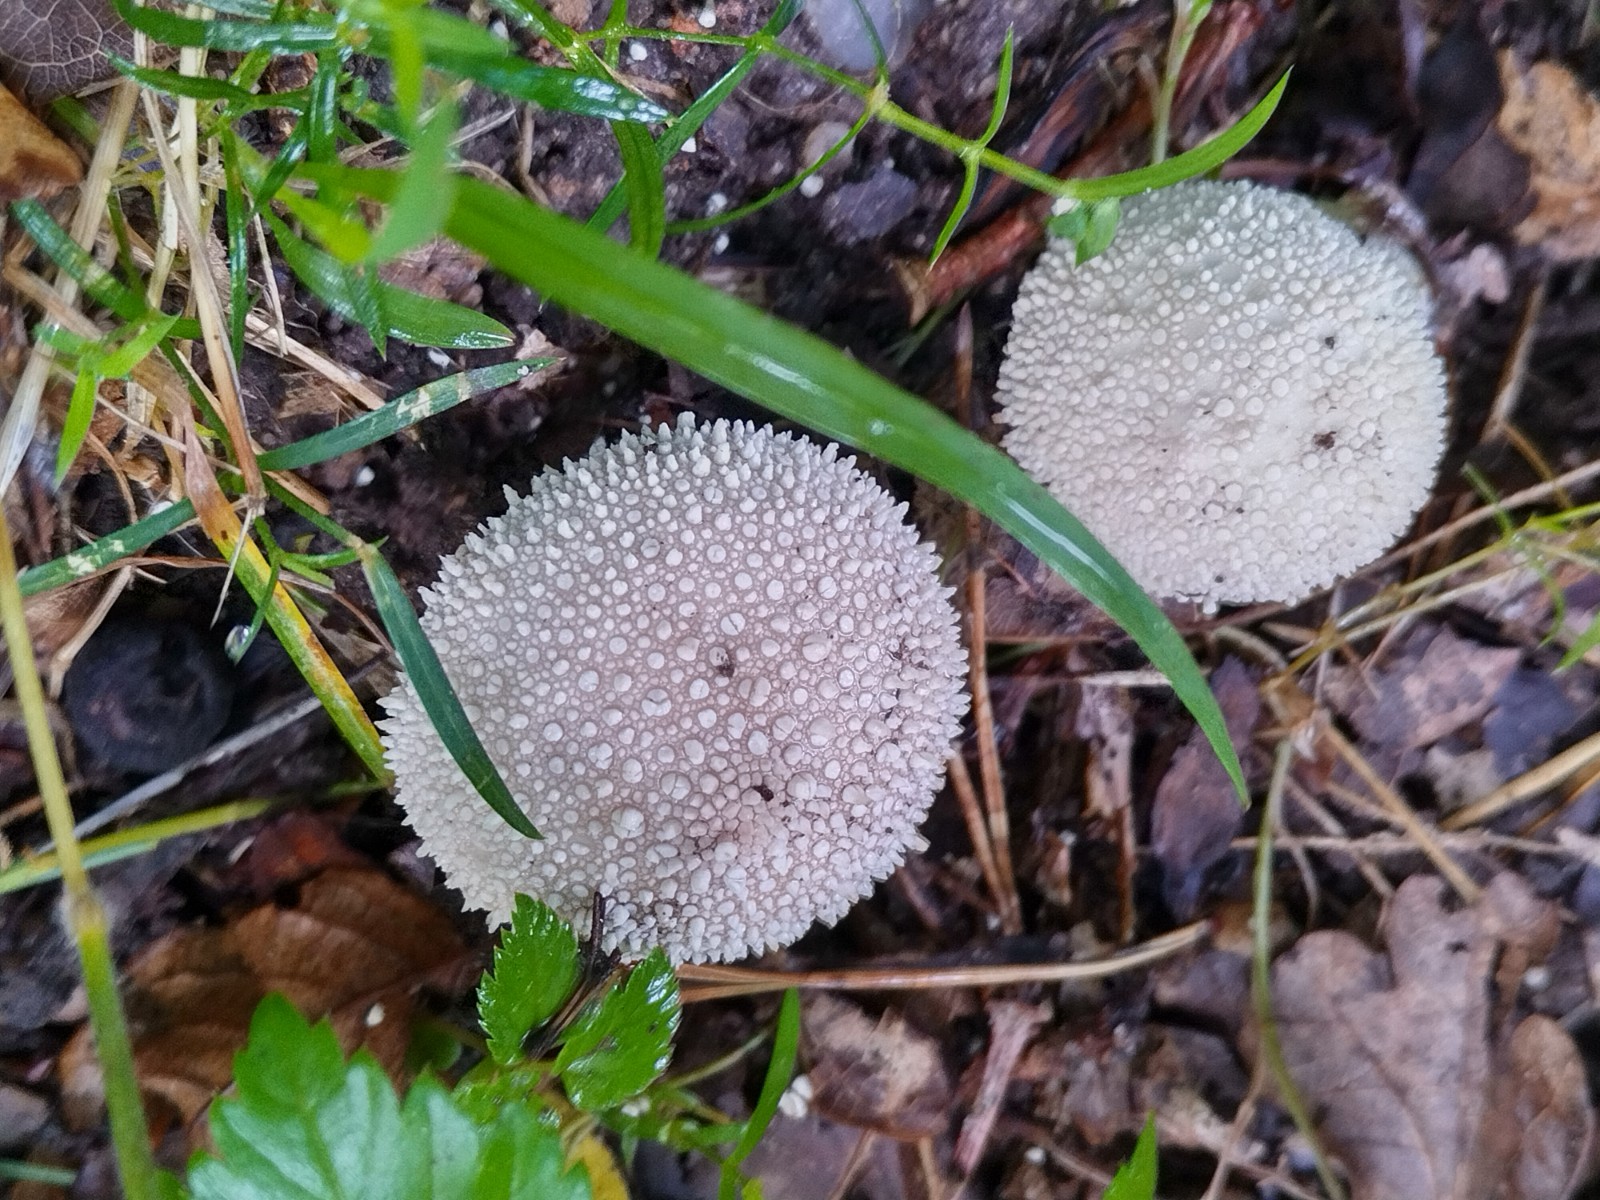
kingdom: Fungi
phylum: Basidiomycota
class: Agaricomycetes
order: Agaricales
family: Lycoperdaceae
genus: Lycoperdon
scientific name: Lycoperdon perlatum
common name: krystal-støvbold
